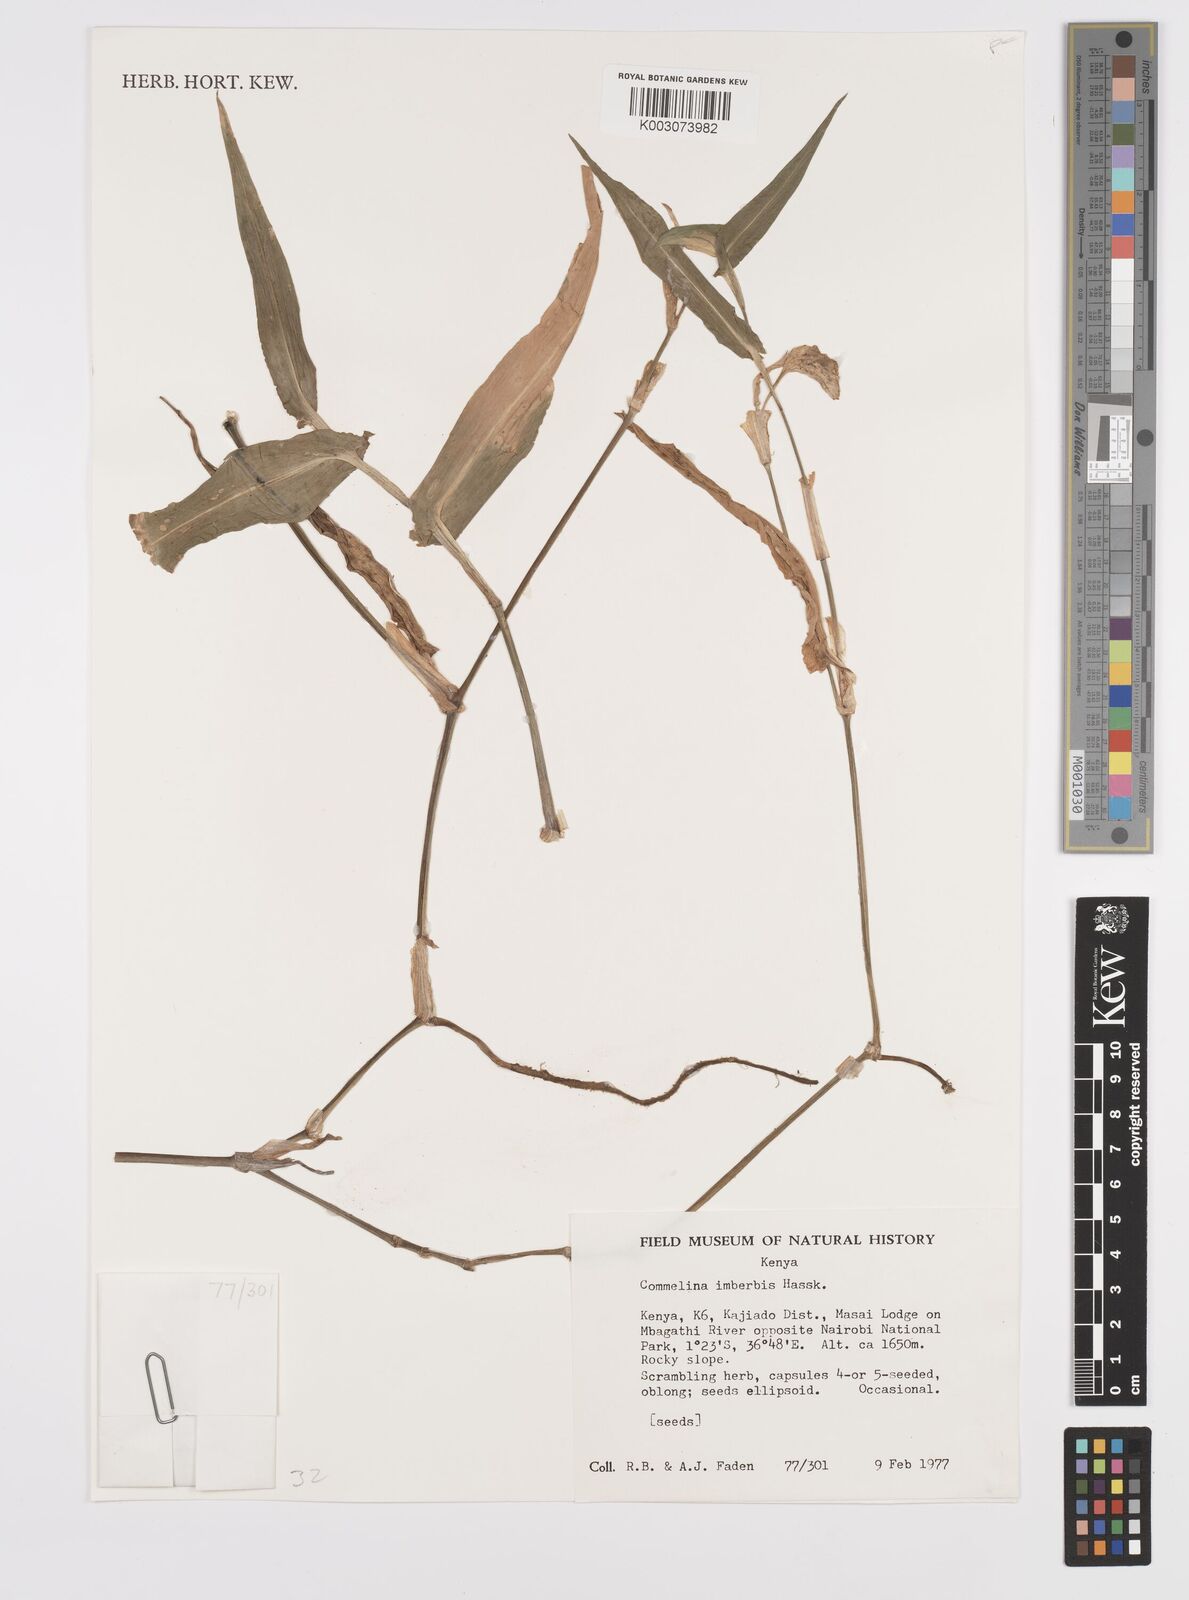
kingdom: Plantae
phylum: Tracheophyta
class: Liliopsida
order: Commelinales
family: Commelinaceae
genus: Commelina
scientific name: Commelina imberbis
